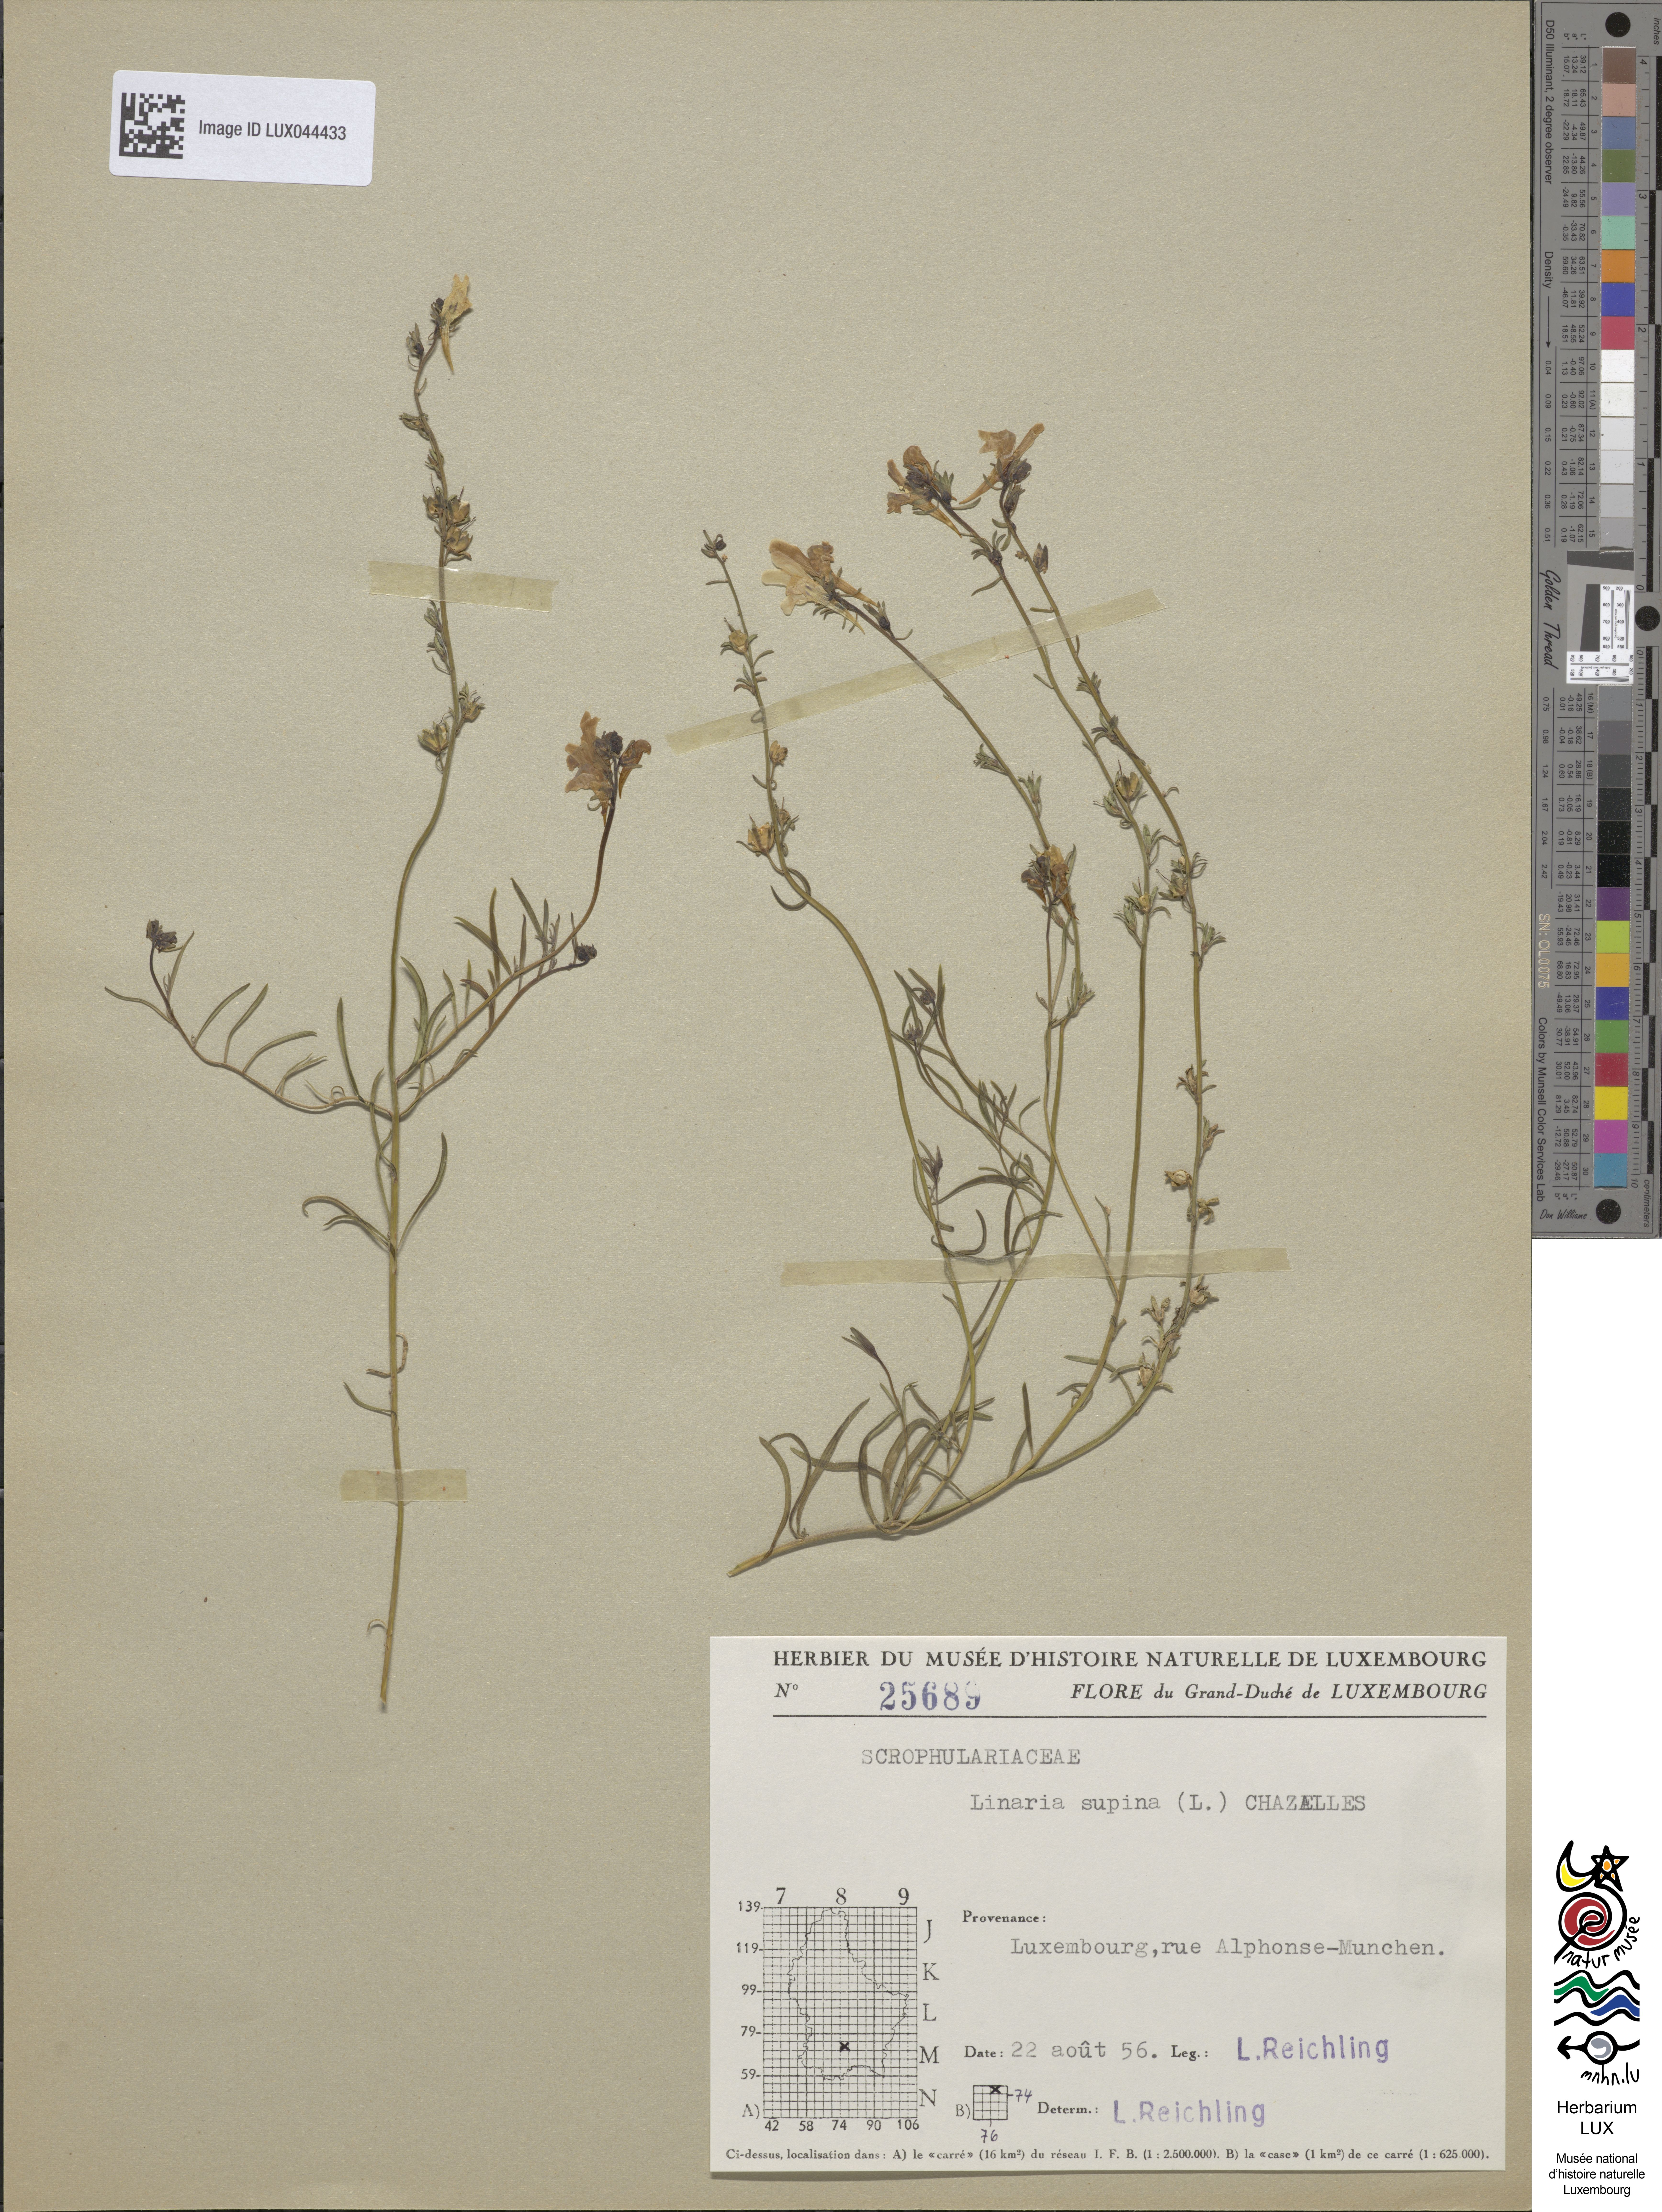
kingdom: Plantae
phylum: Tracheophyta
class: Magnoliopsida
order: Lamiales
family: Plantaginaceae
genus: Linaria
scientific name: Linaria supina
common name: Prostrate toadflax
